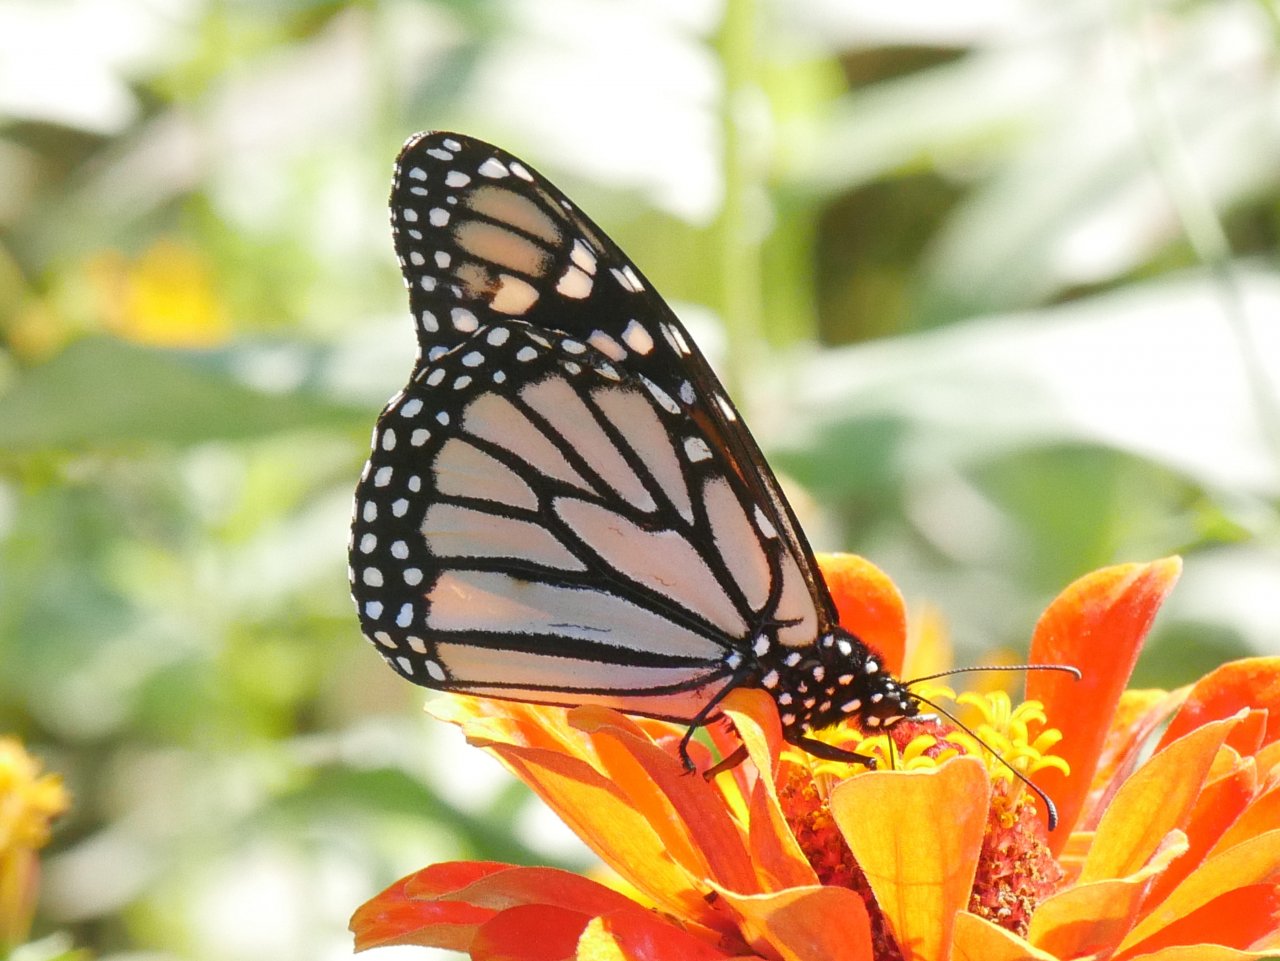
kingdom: Animalia
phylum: Arthropoda
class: Insecta
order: Lepidoptera
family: Nymphalidae
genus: Danaus
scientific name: Danaus plexippus
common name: Monarch
